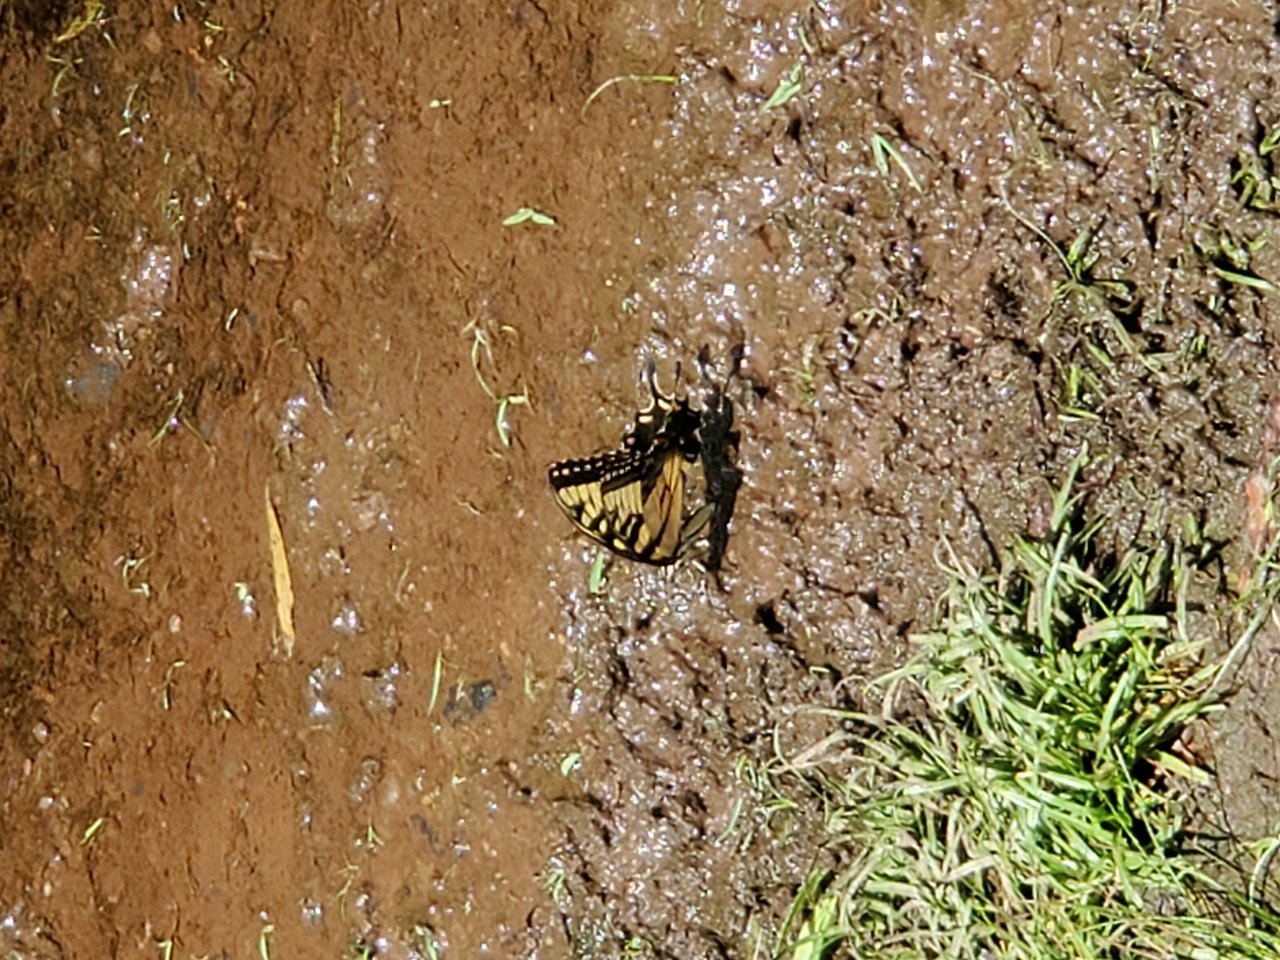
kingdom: Animalia
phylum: Arthropoda
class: Insecta
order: Lepidoptera
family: Papilionidae
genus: Pterourus
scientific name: Pterourus glaucus
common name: Eastern Tiger Swallowtail
